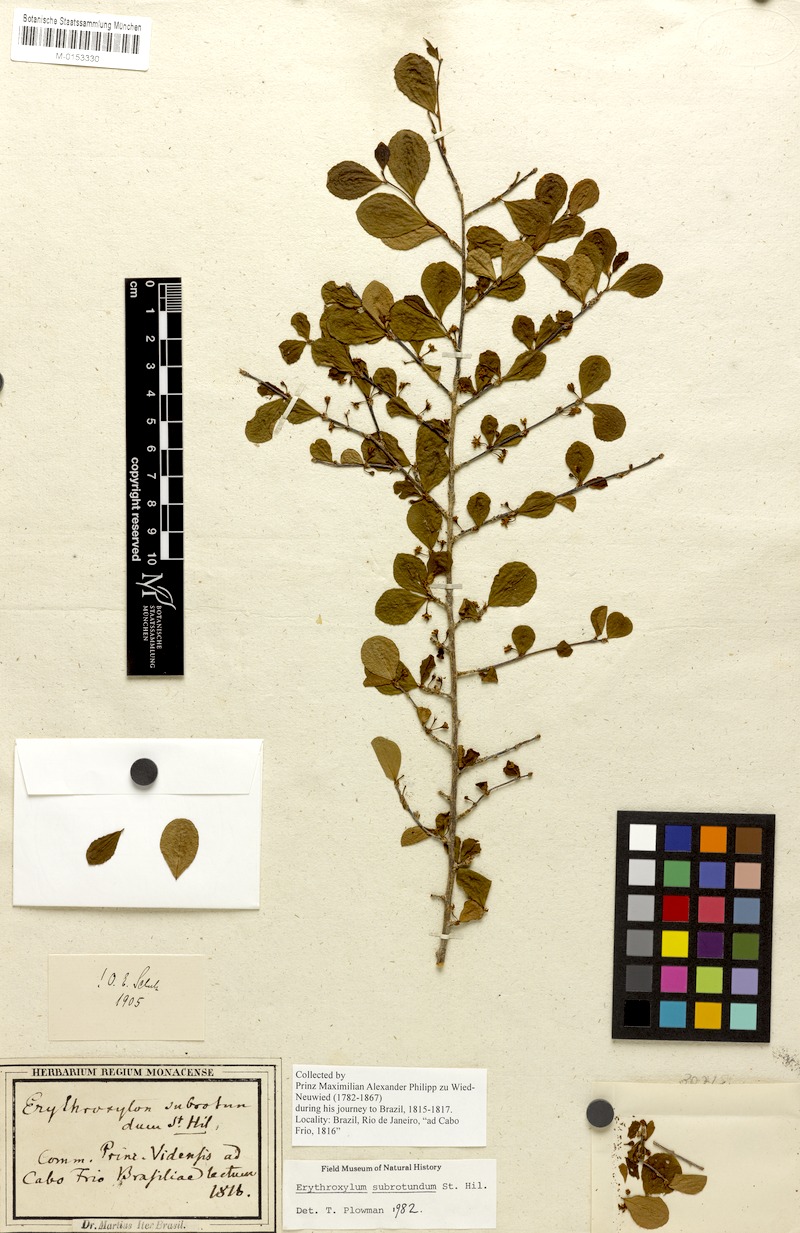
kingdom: Plantae
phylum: Tracheophyta
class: Magnoliopsida
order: Malpighiales
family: Erythroxylaceae
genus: Erythroxylum
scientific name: Erythroxylum subrotundum
